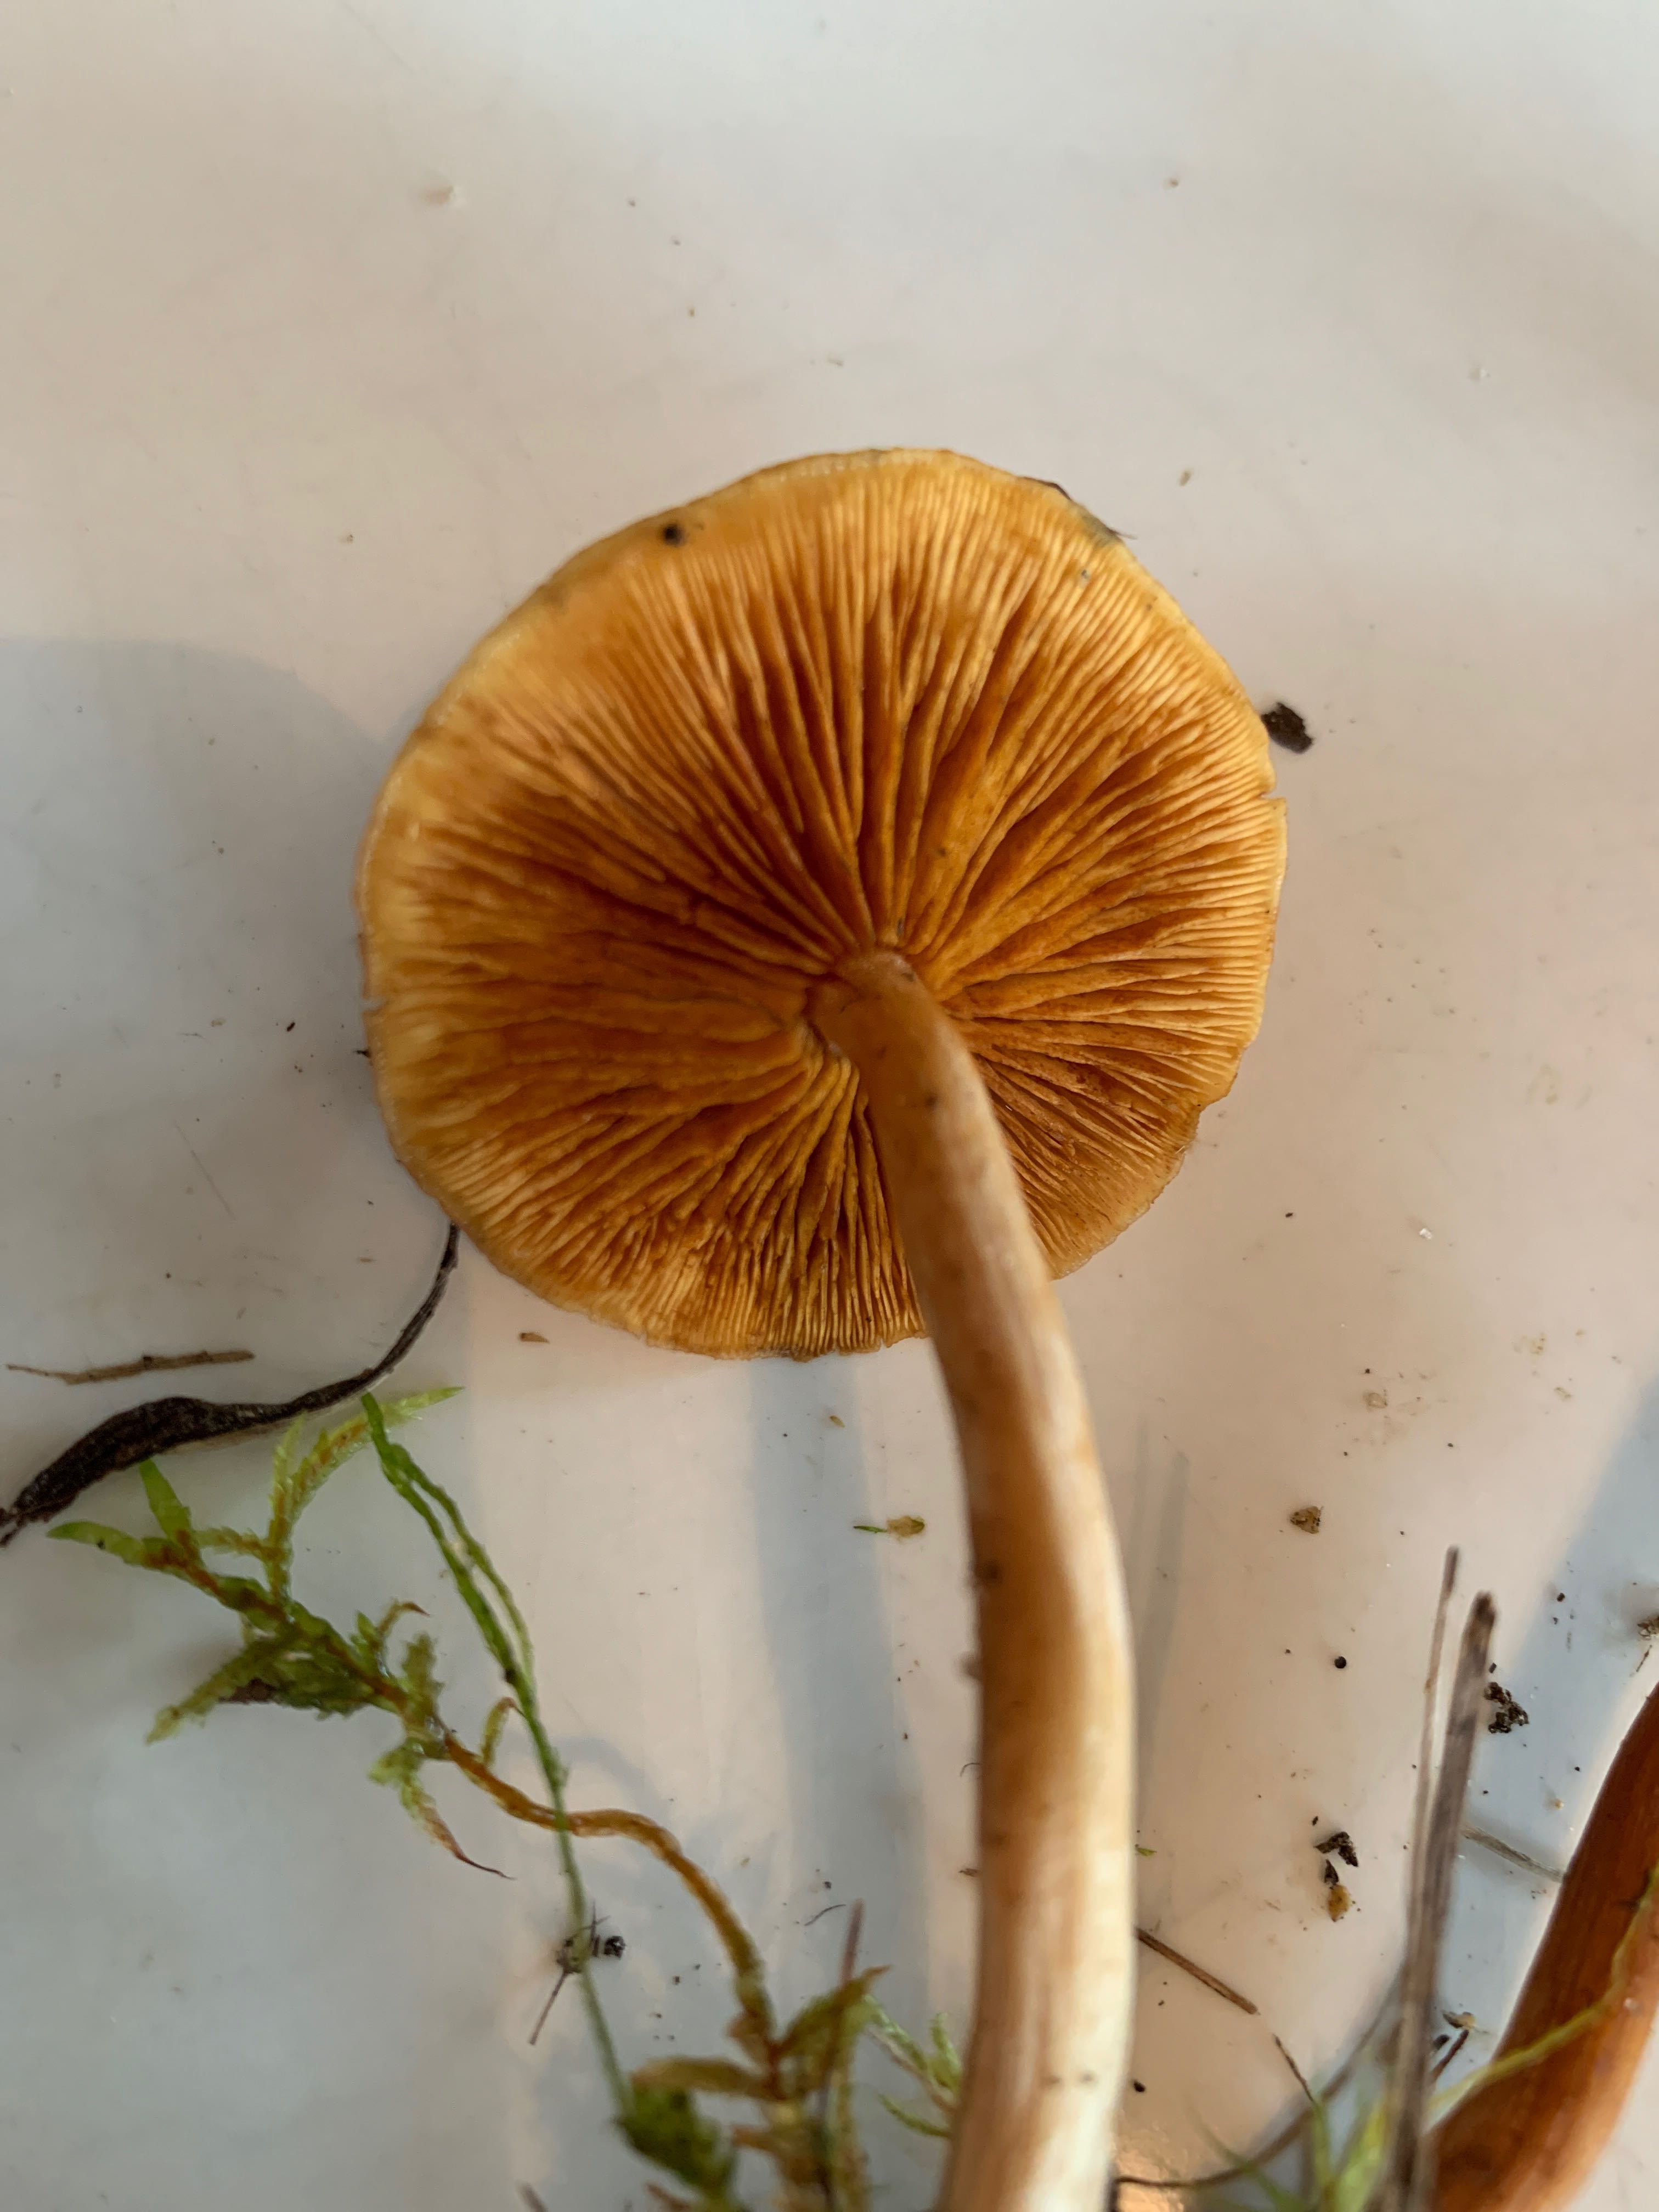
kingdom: Fungi
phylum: Basidiomycota
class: Agaricomycetes
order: Agaricales
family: Hymenogastraceae
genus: Gymnopilus
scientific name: Gymnopilus penetrans
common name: plettet flammehat
